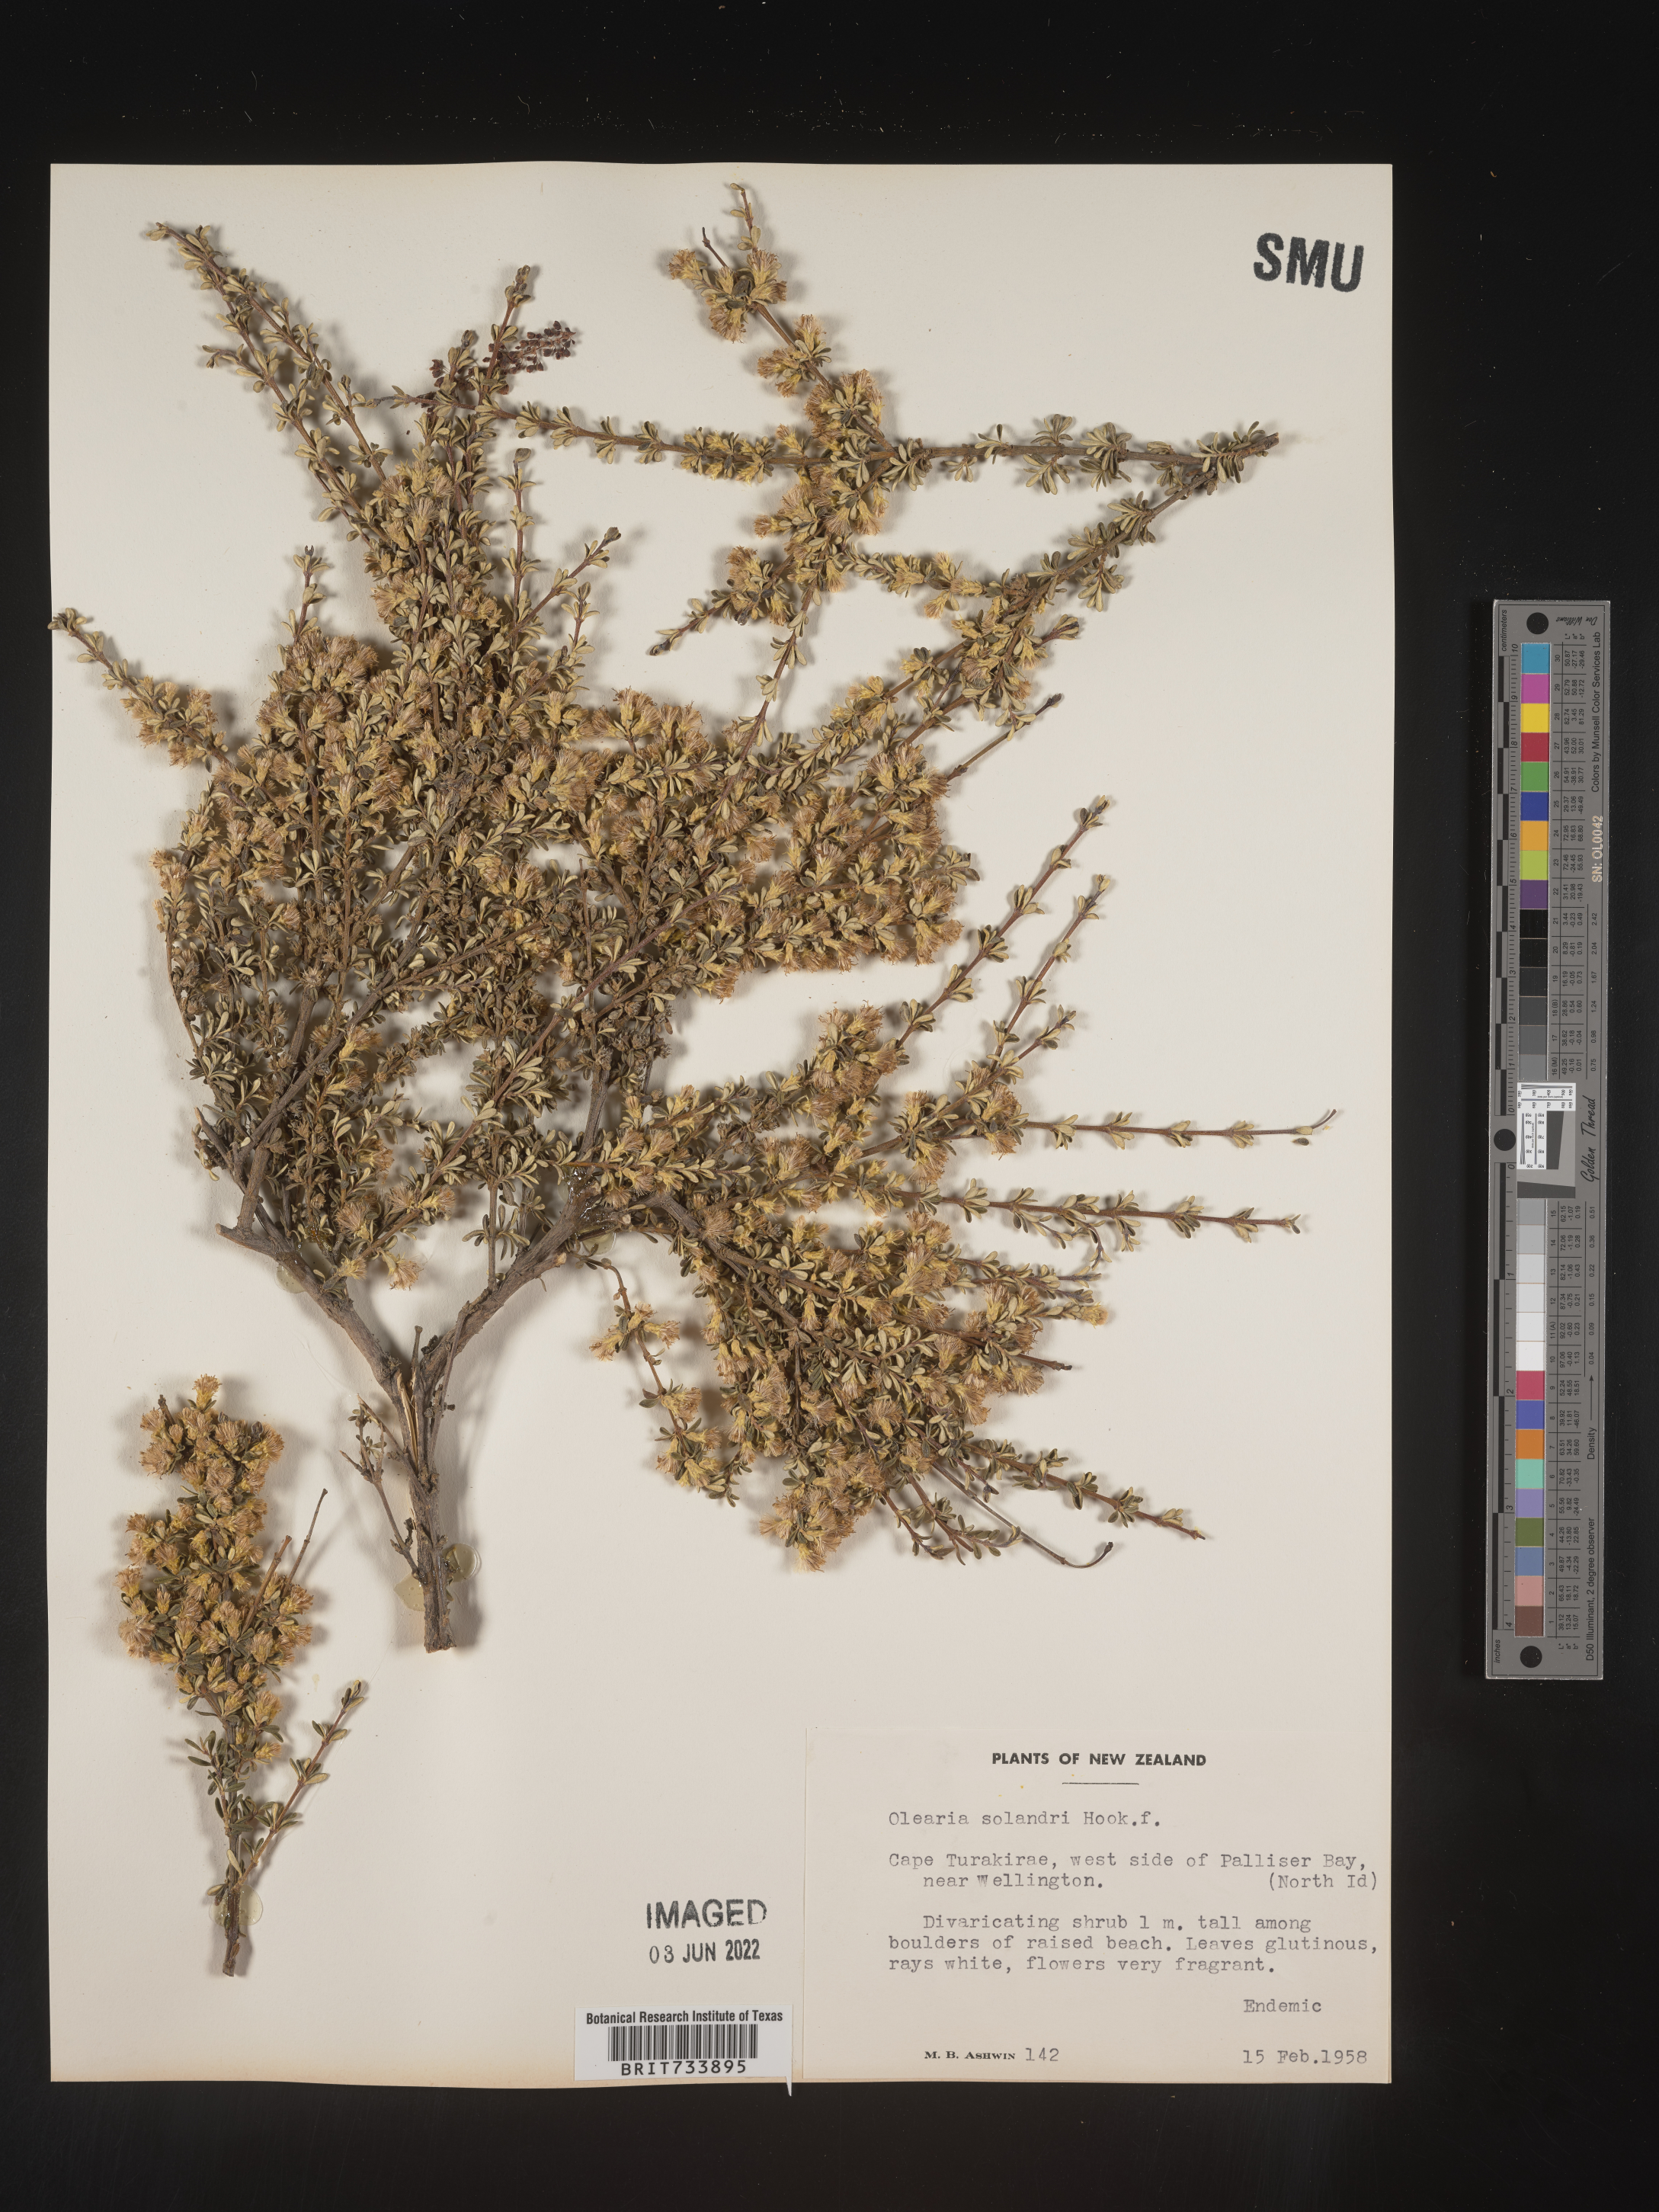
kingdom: Plantae
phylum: Tracheophyta
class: Magnoliopsida
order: Asterales
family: Asteraceae
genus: Olearia
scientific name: Olearia
